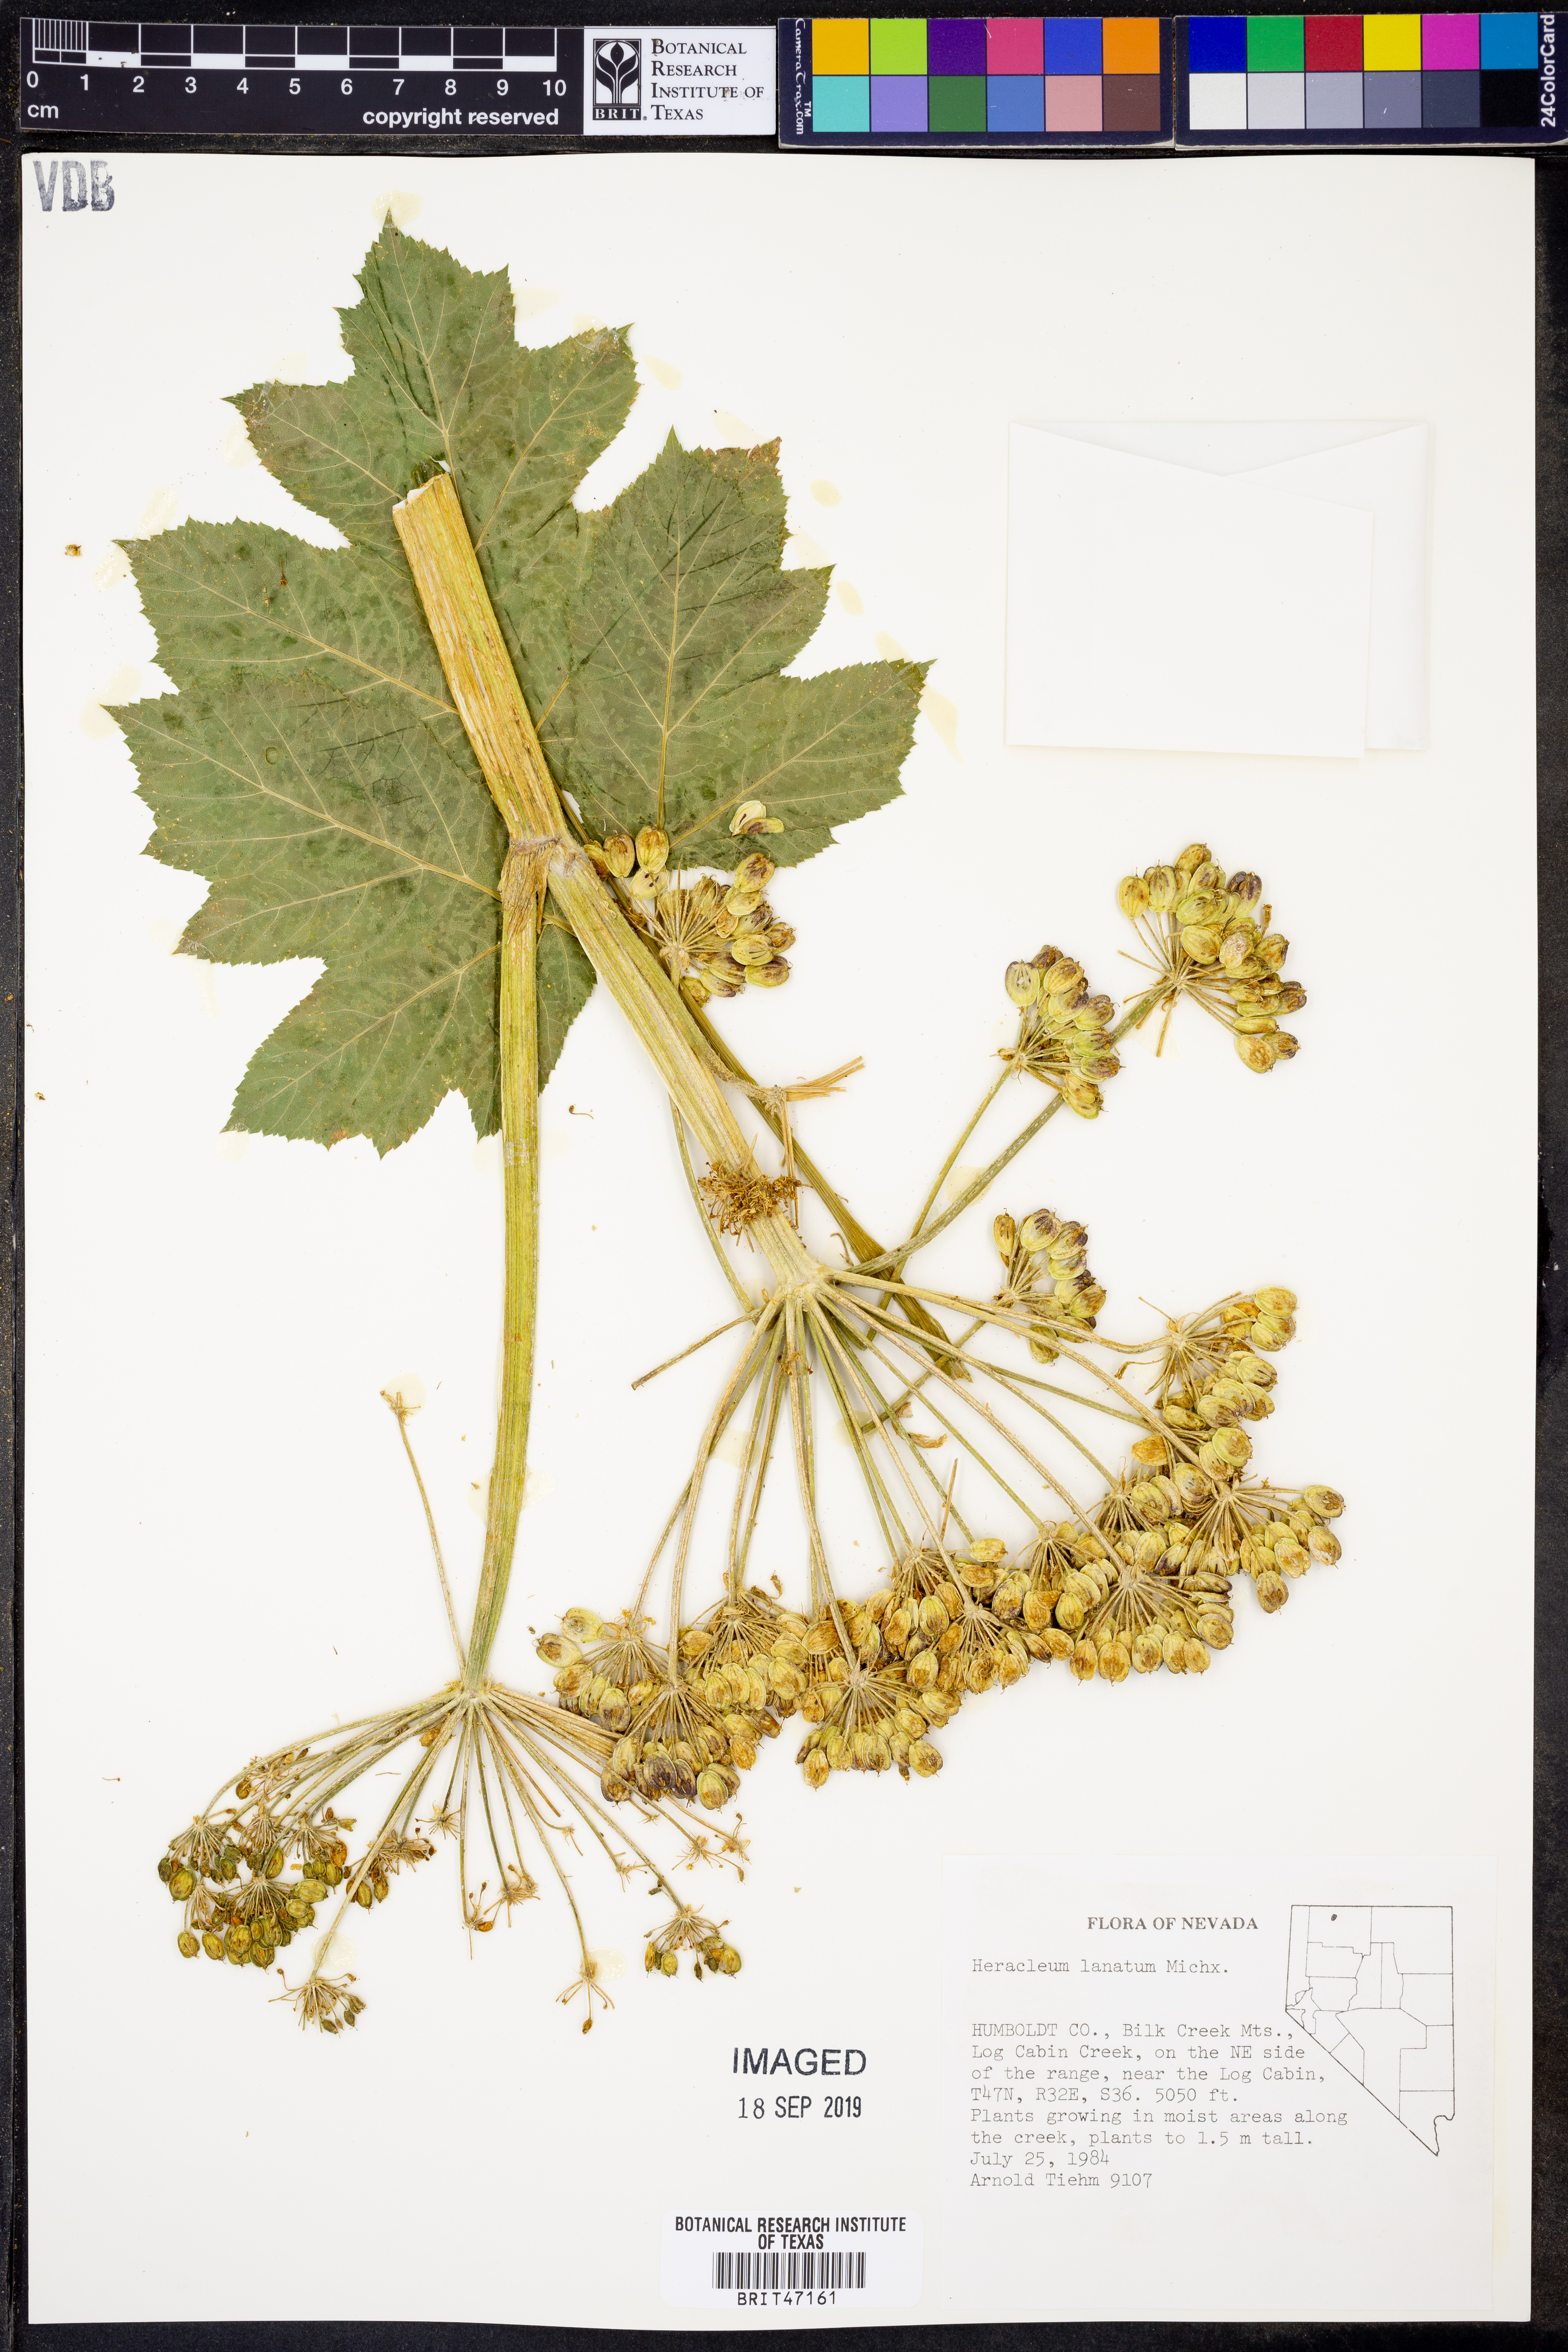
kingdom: Plantae
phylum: Tracheophyta
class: Magnoliopsida
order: Apiales
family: Apiaceae
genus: Heracleum
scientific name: Heracleum maximum
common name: American cow parsnip
